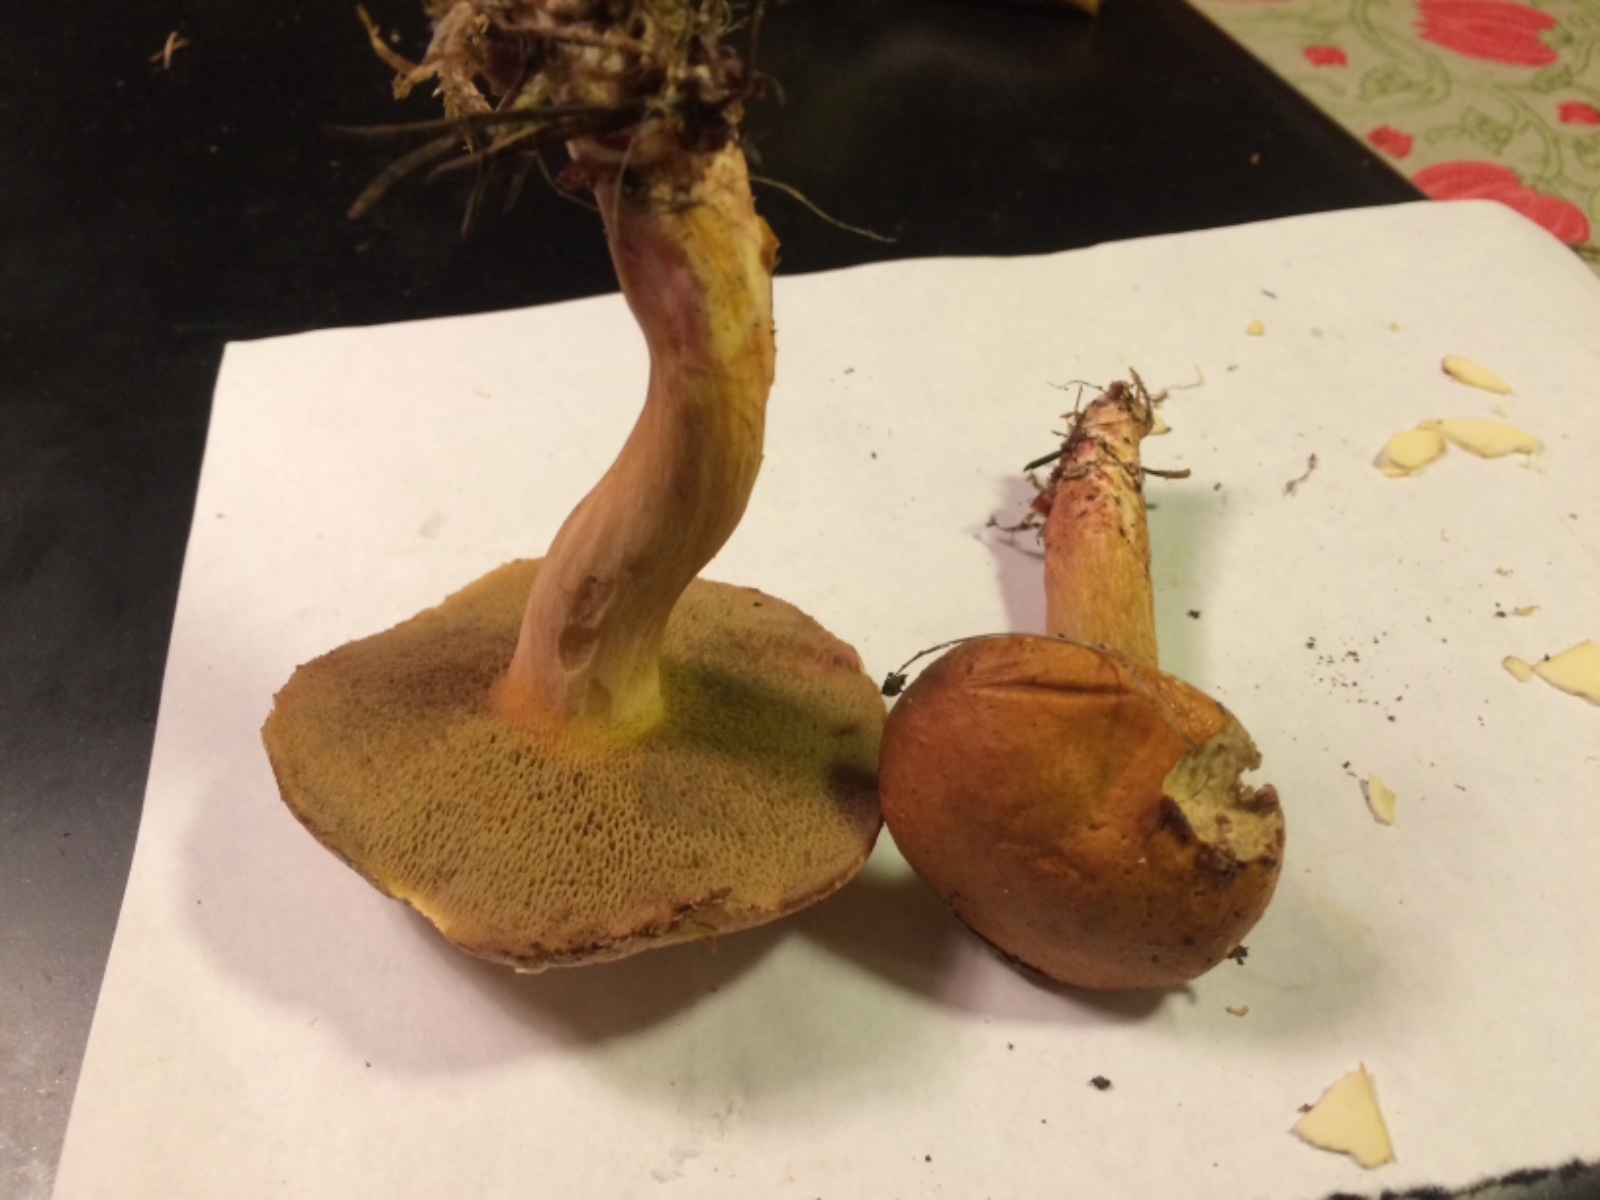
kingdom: Fungi
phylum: Basidiomycota
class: Agaricomycetes
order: Boletales
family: Suillaceae
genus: Suillus
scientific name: Suillus bovinus
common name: grovporet slimrørhat
